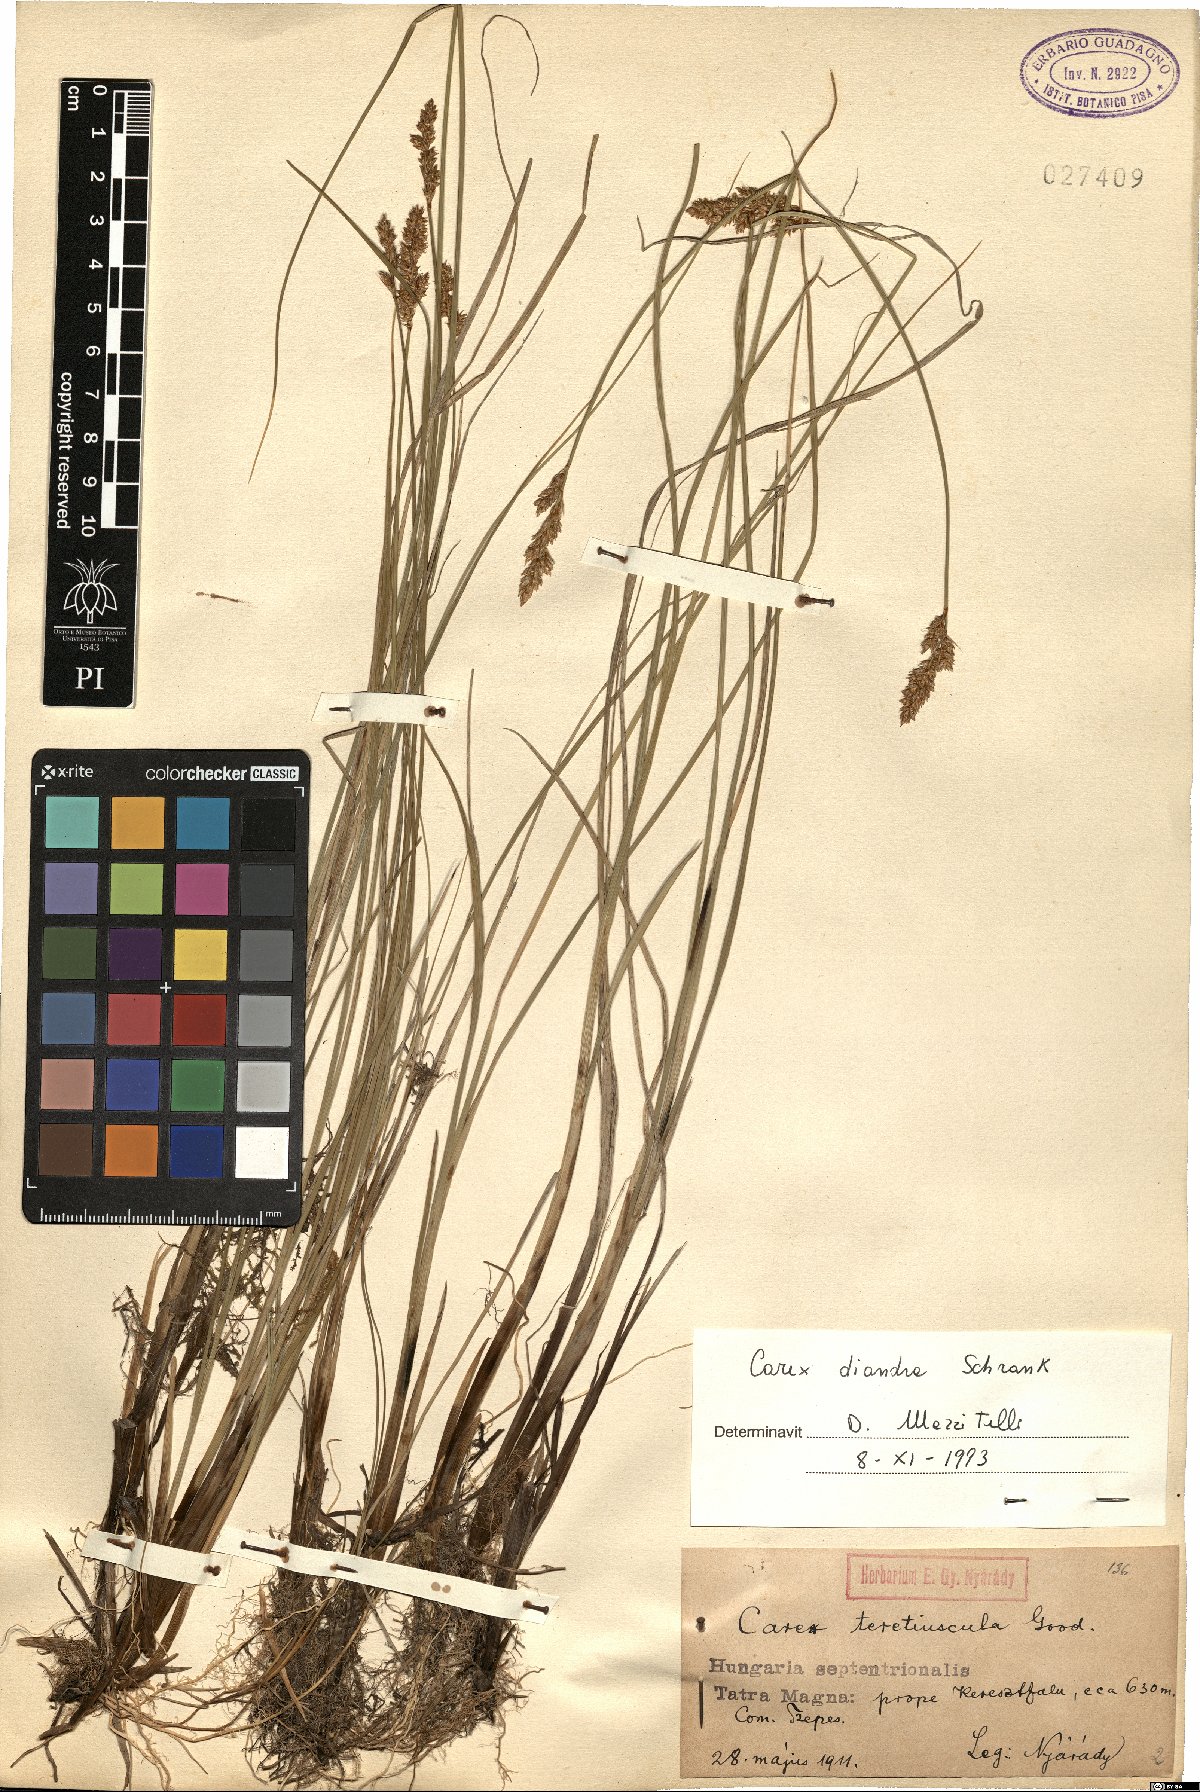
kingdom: Plantae
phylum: Tracheophyta
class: Liliopsida
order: Poales
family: Cyperaceae
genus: Carex
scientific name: Carex diandra
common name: Lesser tussock-sedge
